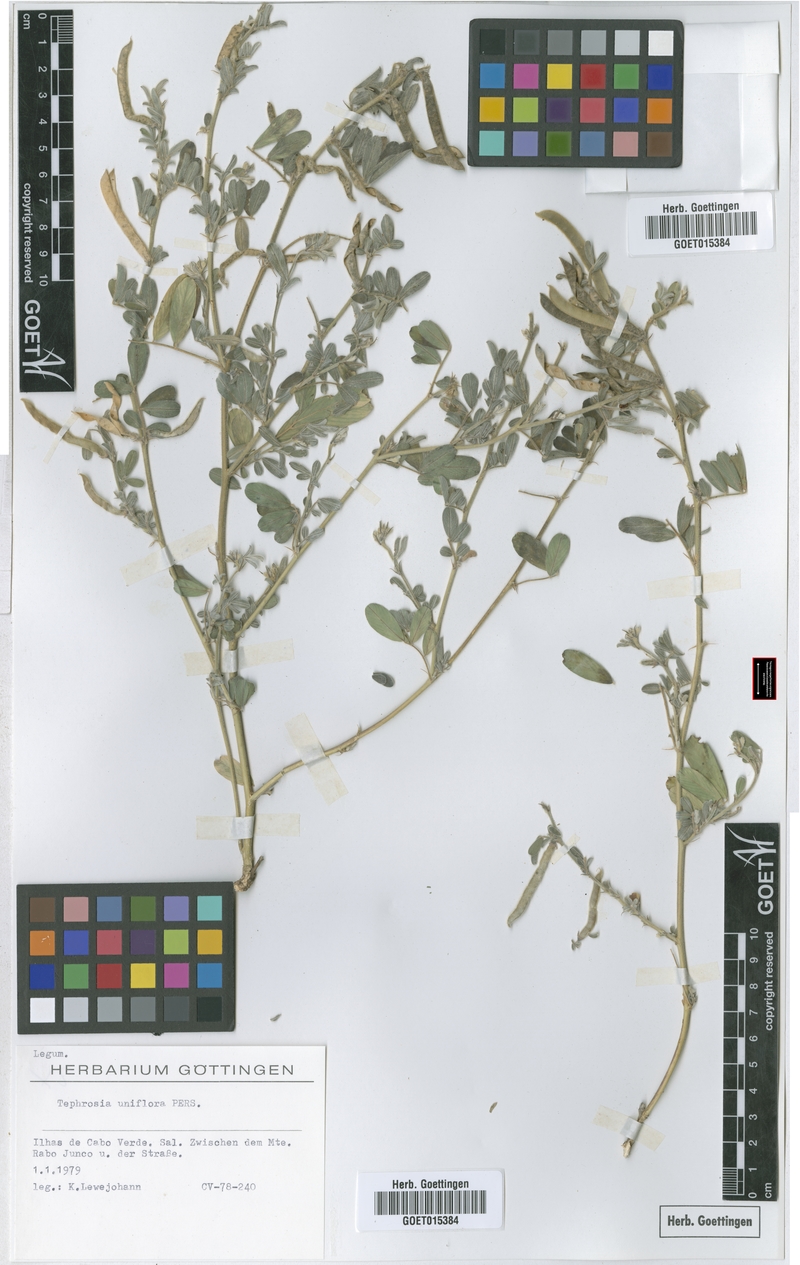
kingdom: Plantae
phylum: Tracheophyta
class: Magnoliopsida
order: Fabales
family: Fabaceae
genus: Tephrosia
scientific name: Tephrosia uniflora
